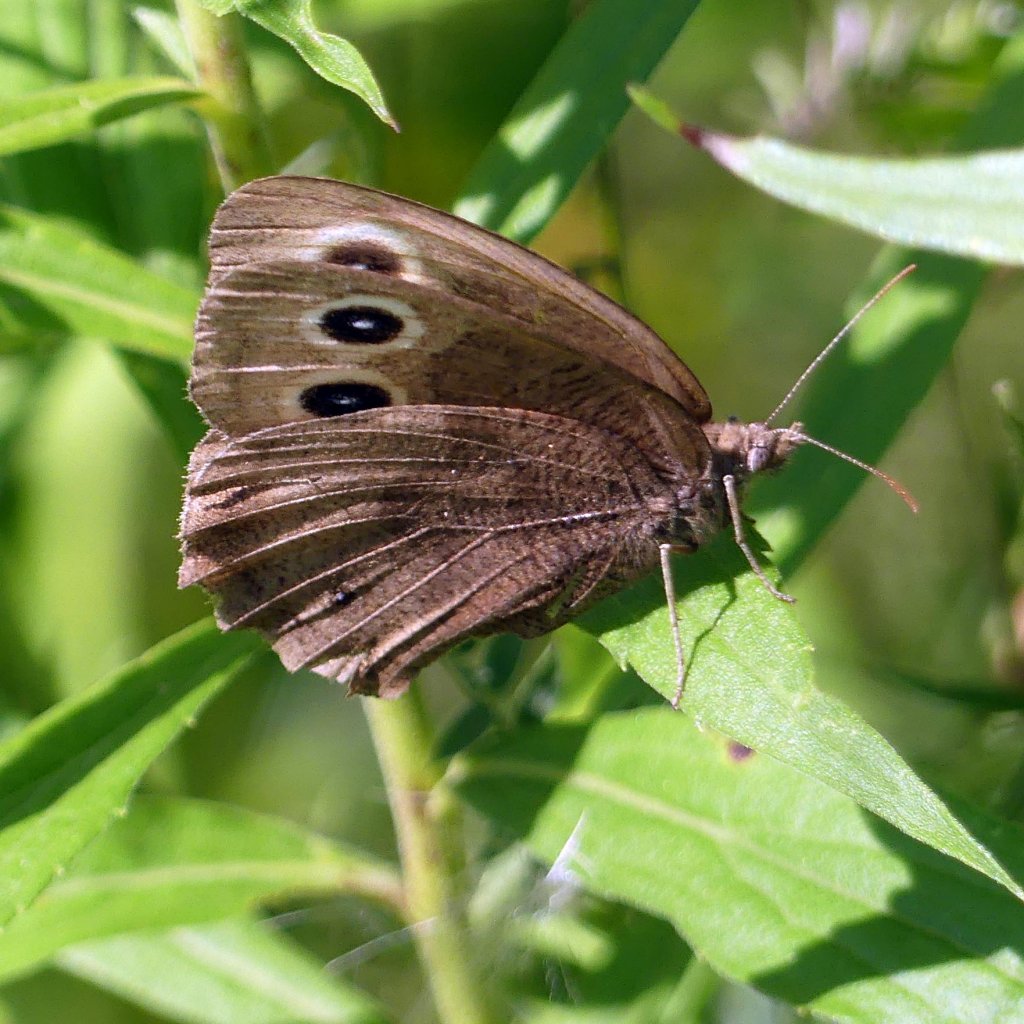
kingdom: Animalia
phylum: Arthropoda
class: Insecta
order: Lepidoptera
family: Nymphalidae
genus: Cercyonis
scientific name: Cercyonis pegala
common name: Common Wood-Nymph
